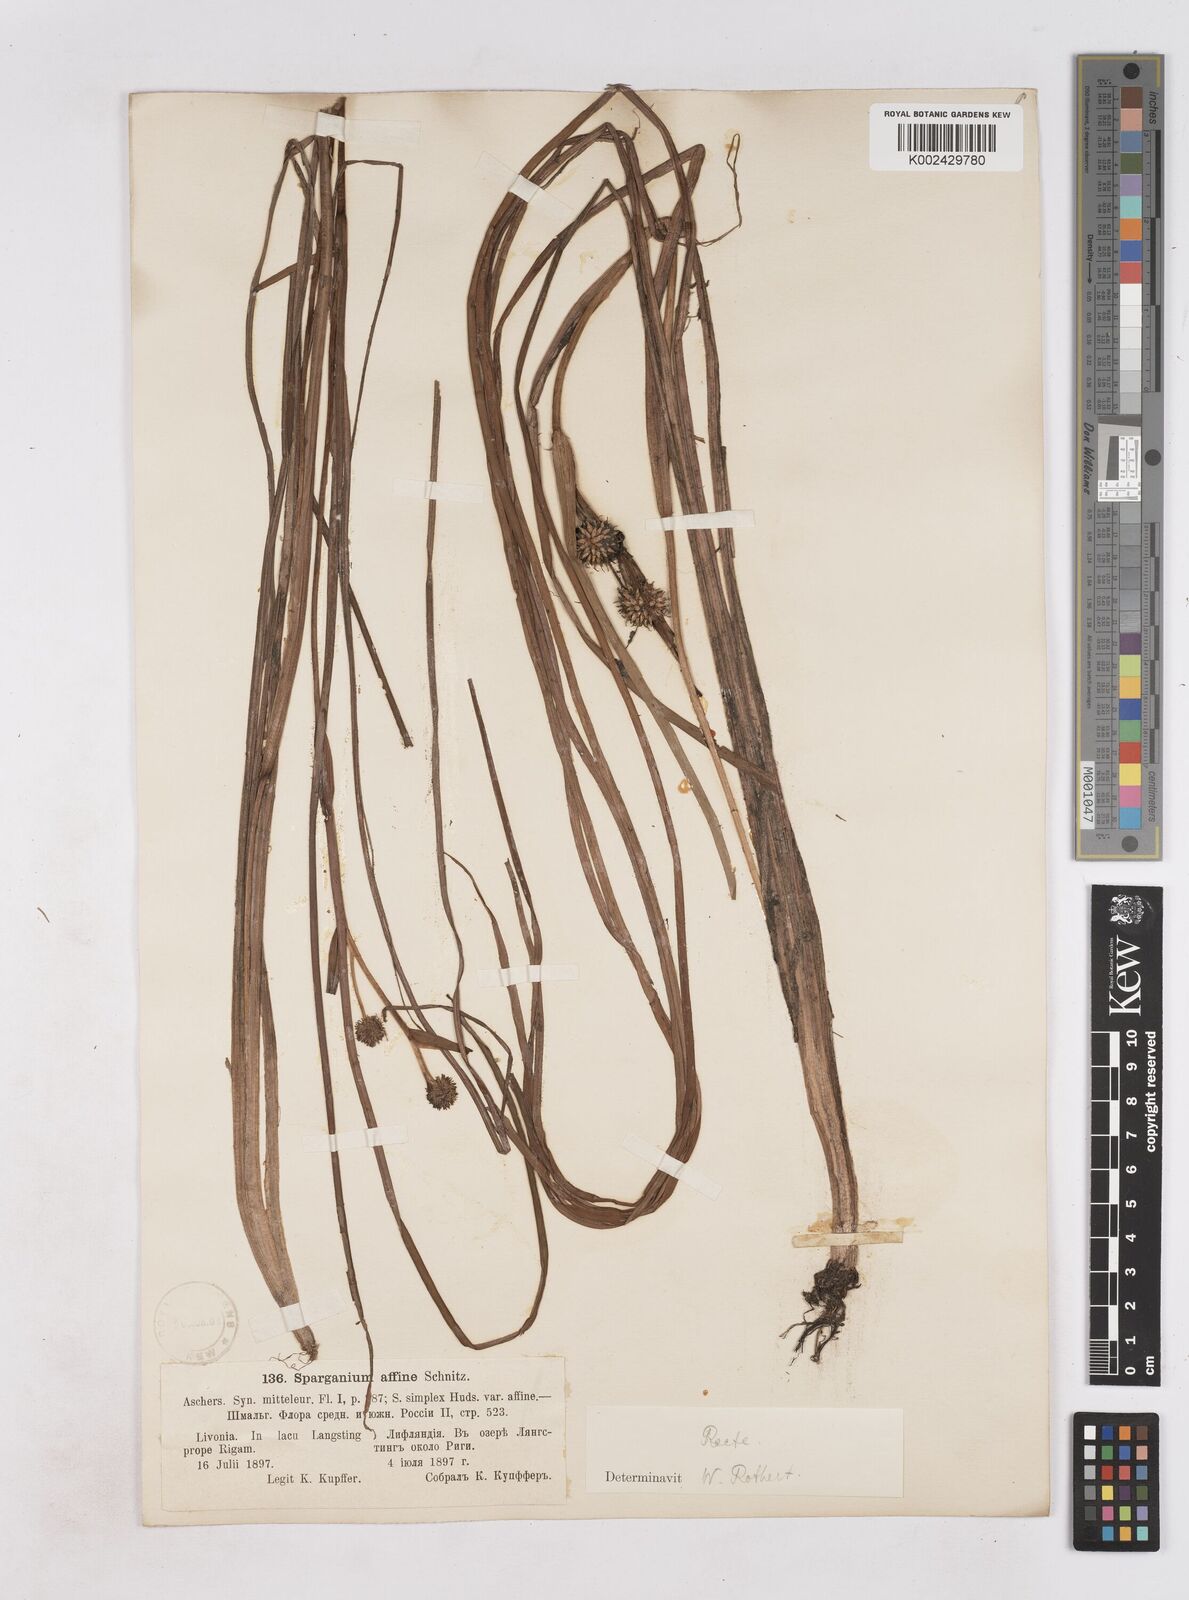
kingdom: Plantae
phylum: Tracheophyta
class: Liliopsida
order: Poales
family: Typhaceae
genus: Sparganium
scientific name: Sparganium angustifolium
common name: Floating bur-reed
